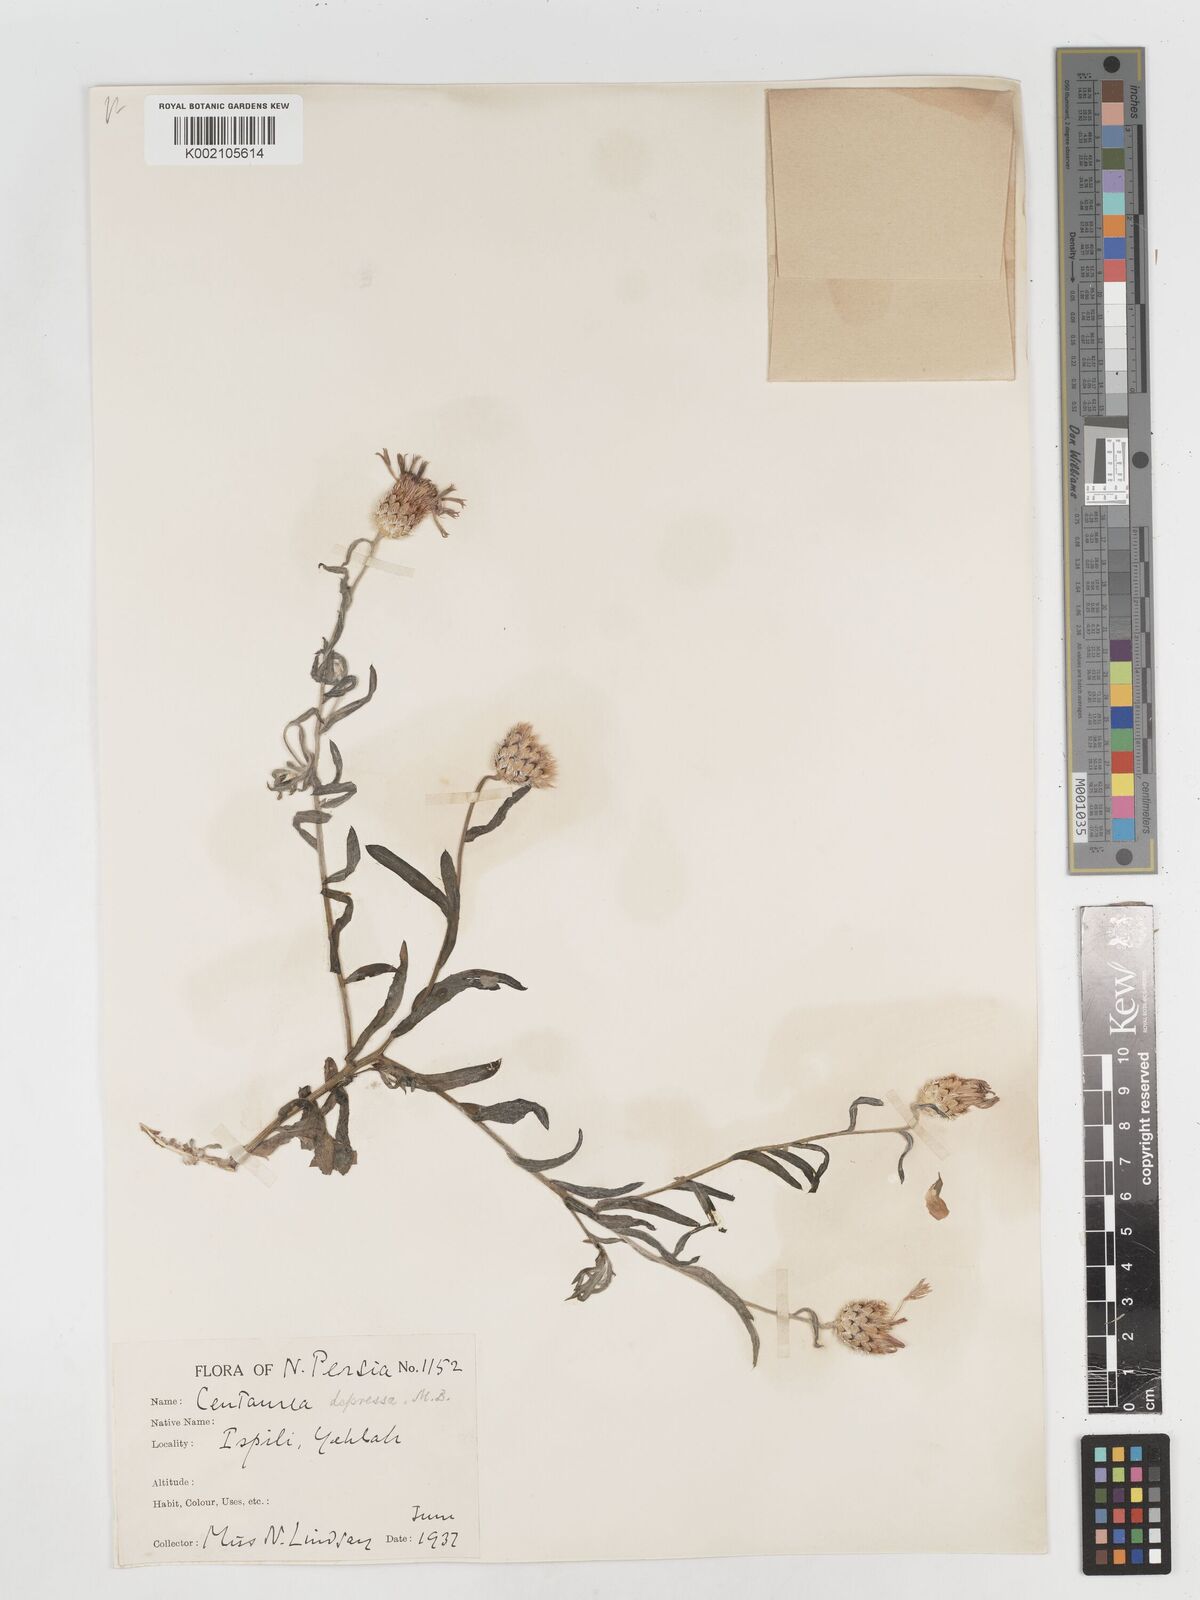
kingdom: Plantae
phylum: Tracheophyta
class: Magnoliopsida
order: Asterales
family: Asteraceae
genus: Centaurea
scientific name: Centaurea depressa
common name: Iranian knapweed
